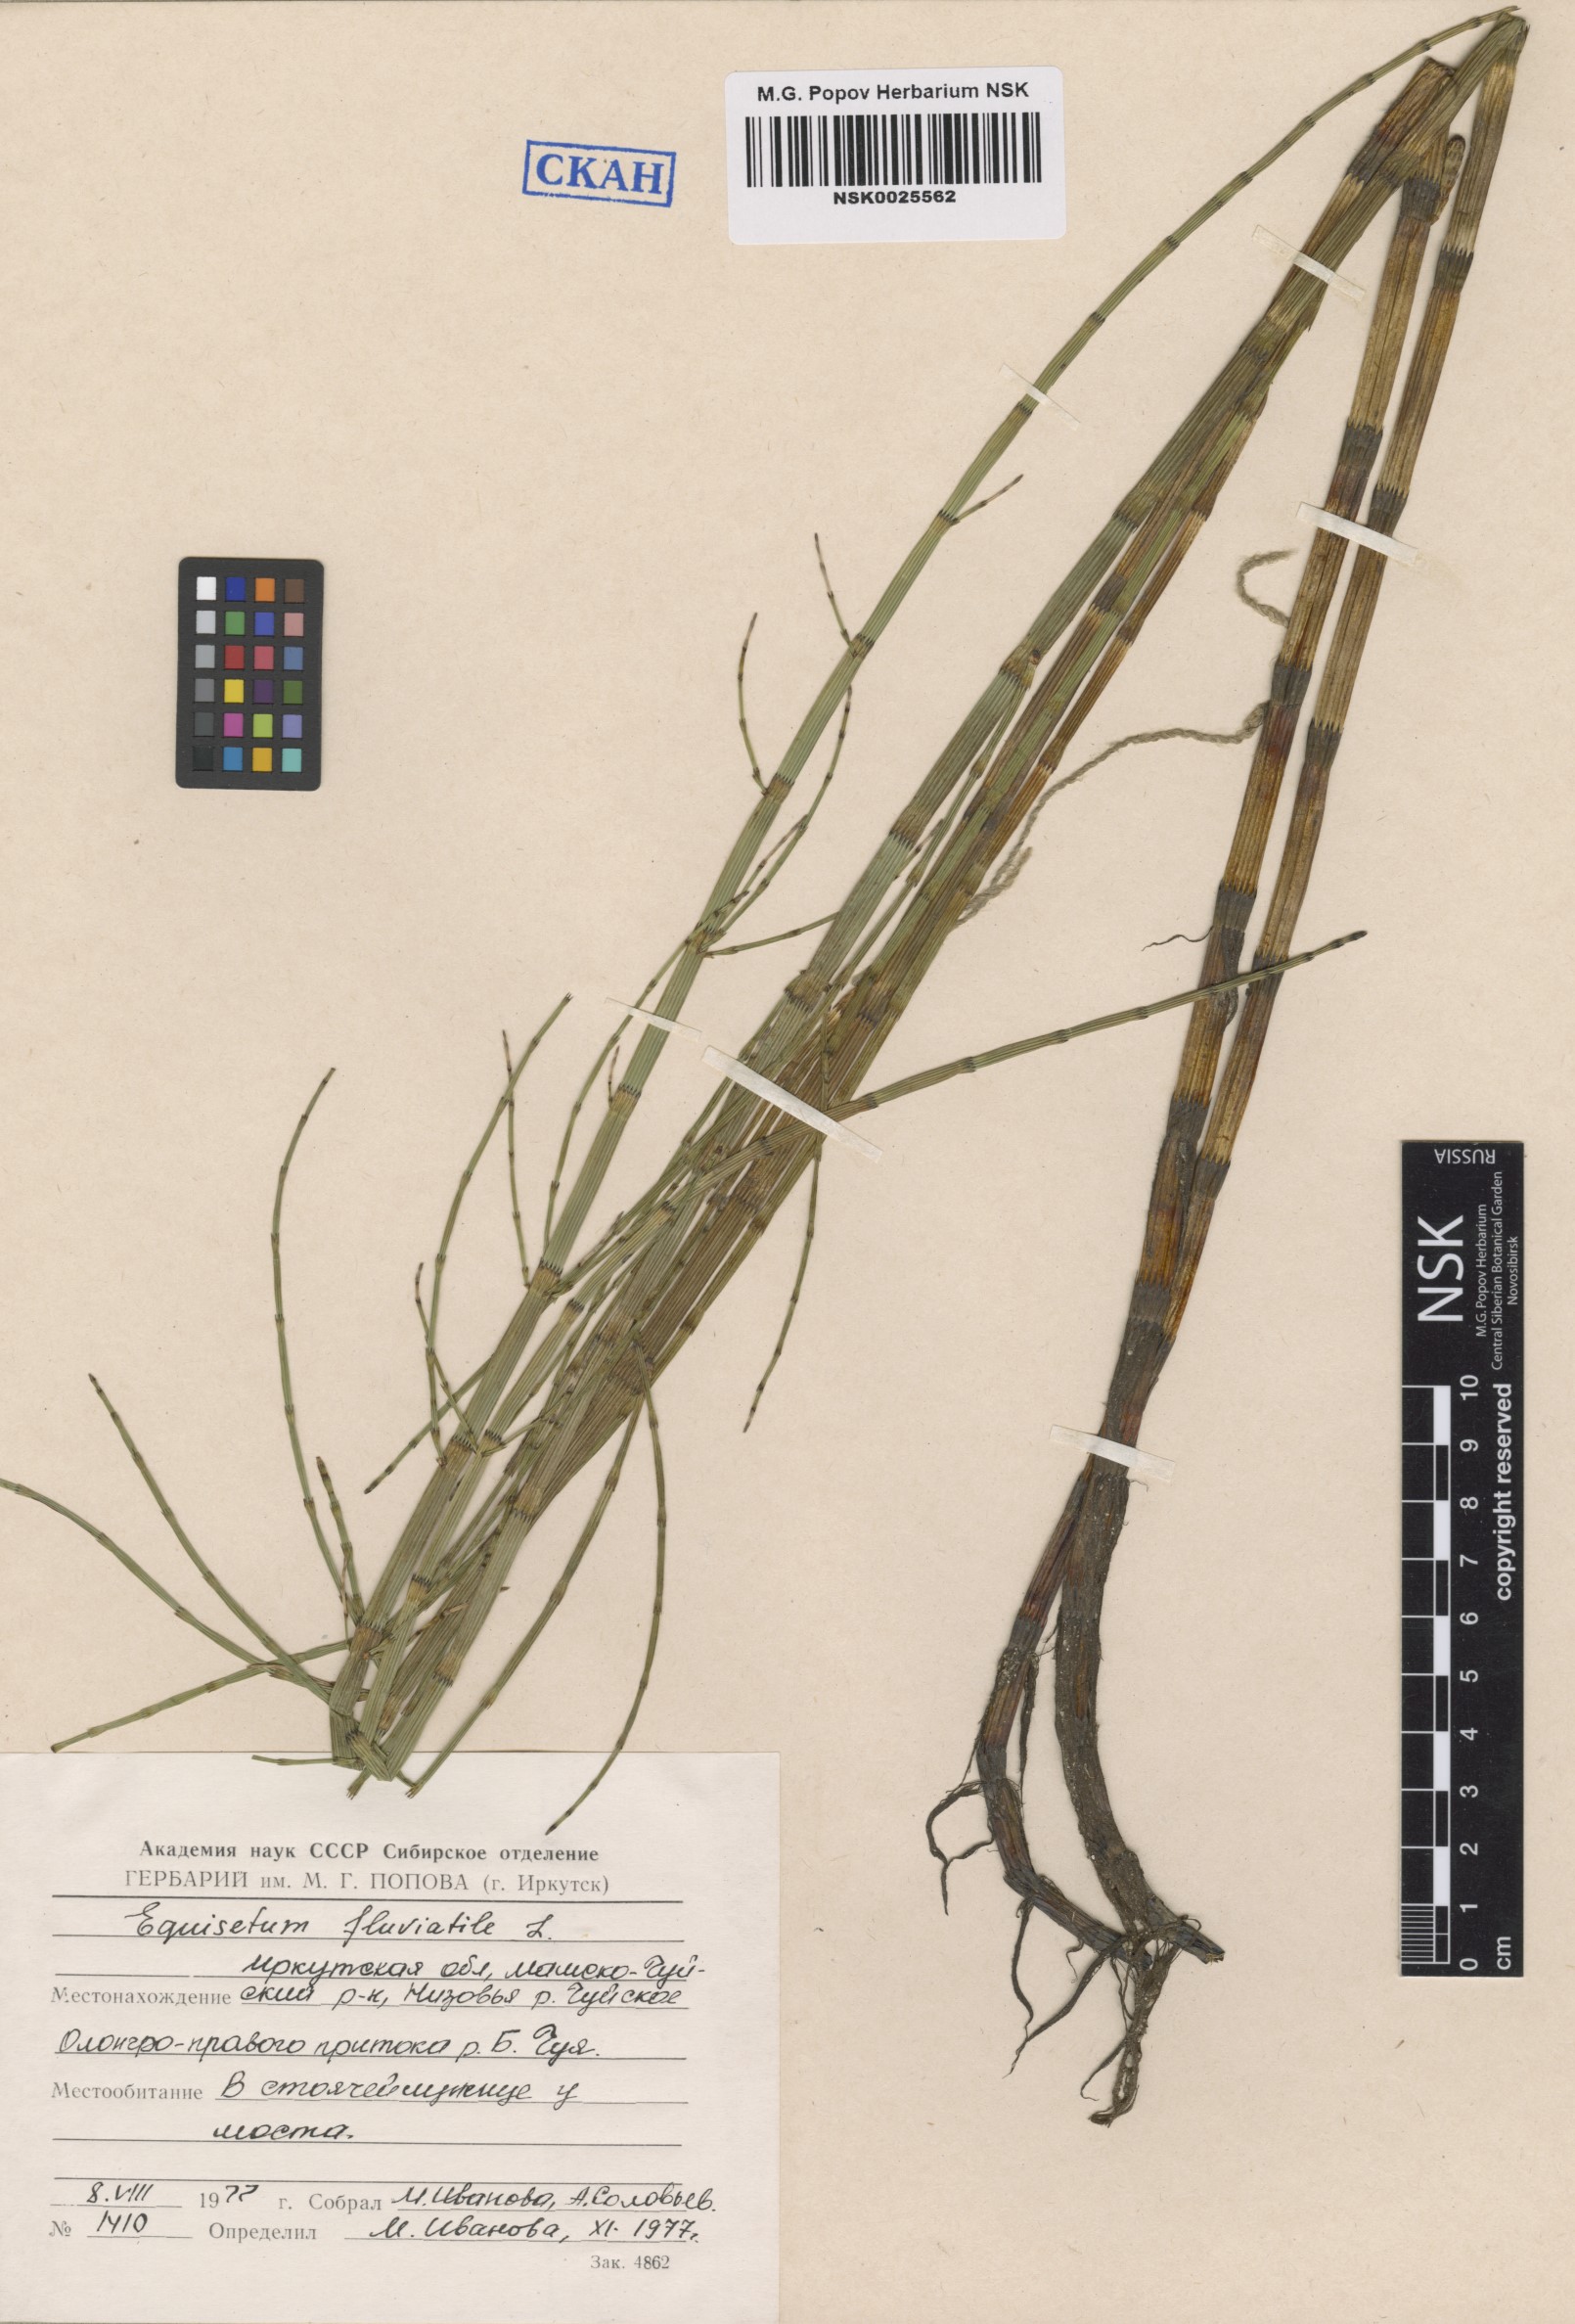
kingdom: Plantae
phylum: Tracheophyta
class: Polypodiopsida
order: Equisetales
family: Equisetaceae
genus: Equisetum
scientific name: Equisetum fluviatile
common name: Water horsetail
